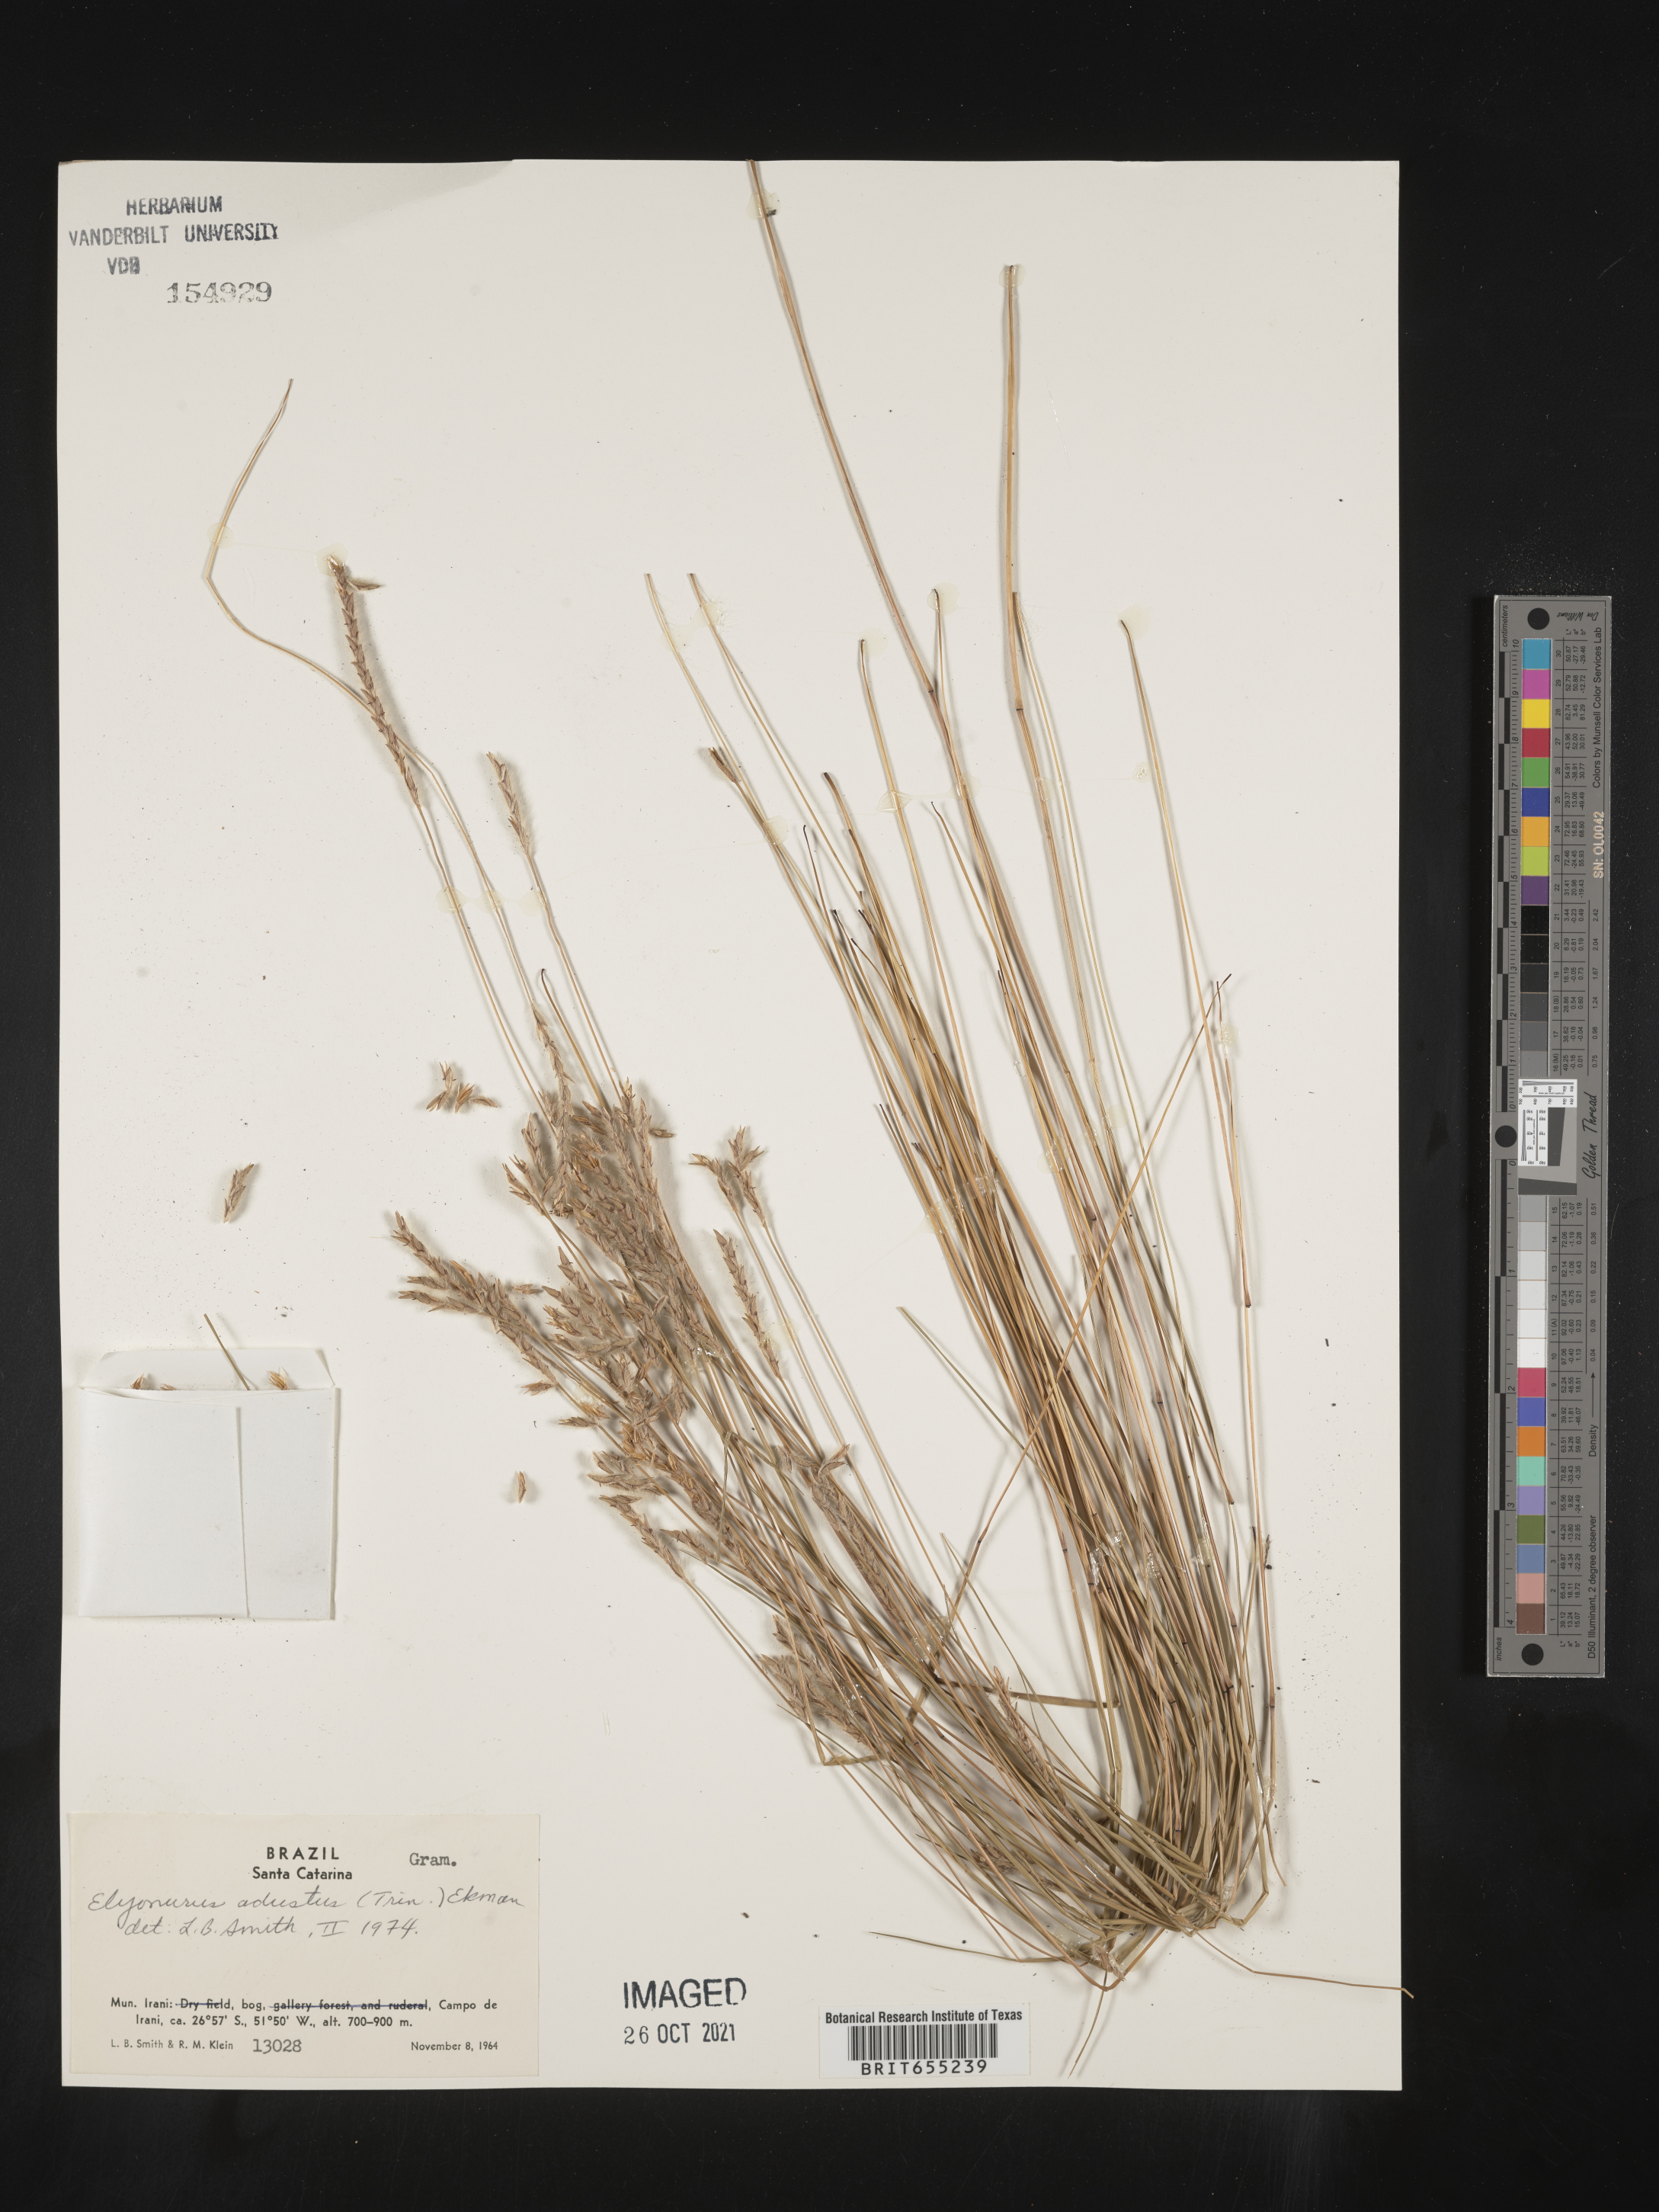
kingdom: Plantae
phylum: Tracheophyta
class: Liliopsida
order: Poales
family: Poaceae
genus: Elionurus
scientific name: Elionurus
